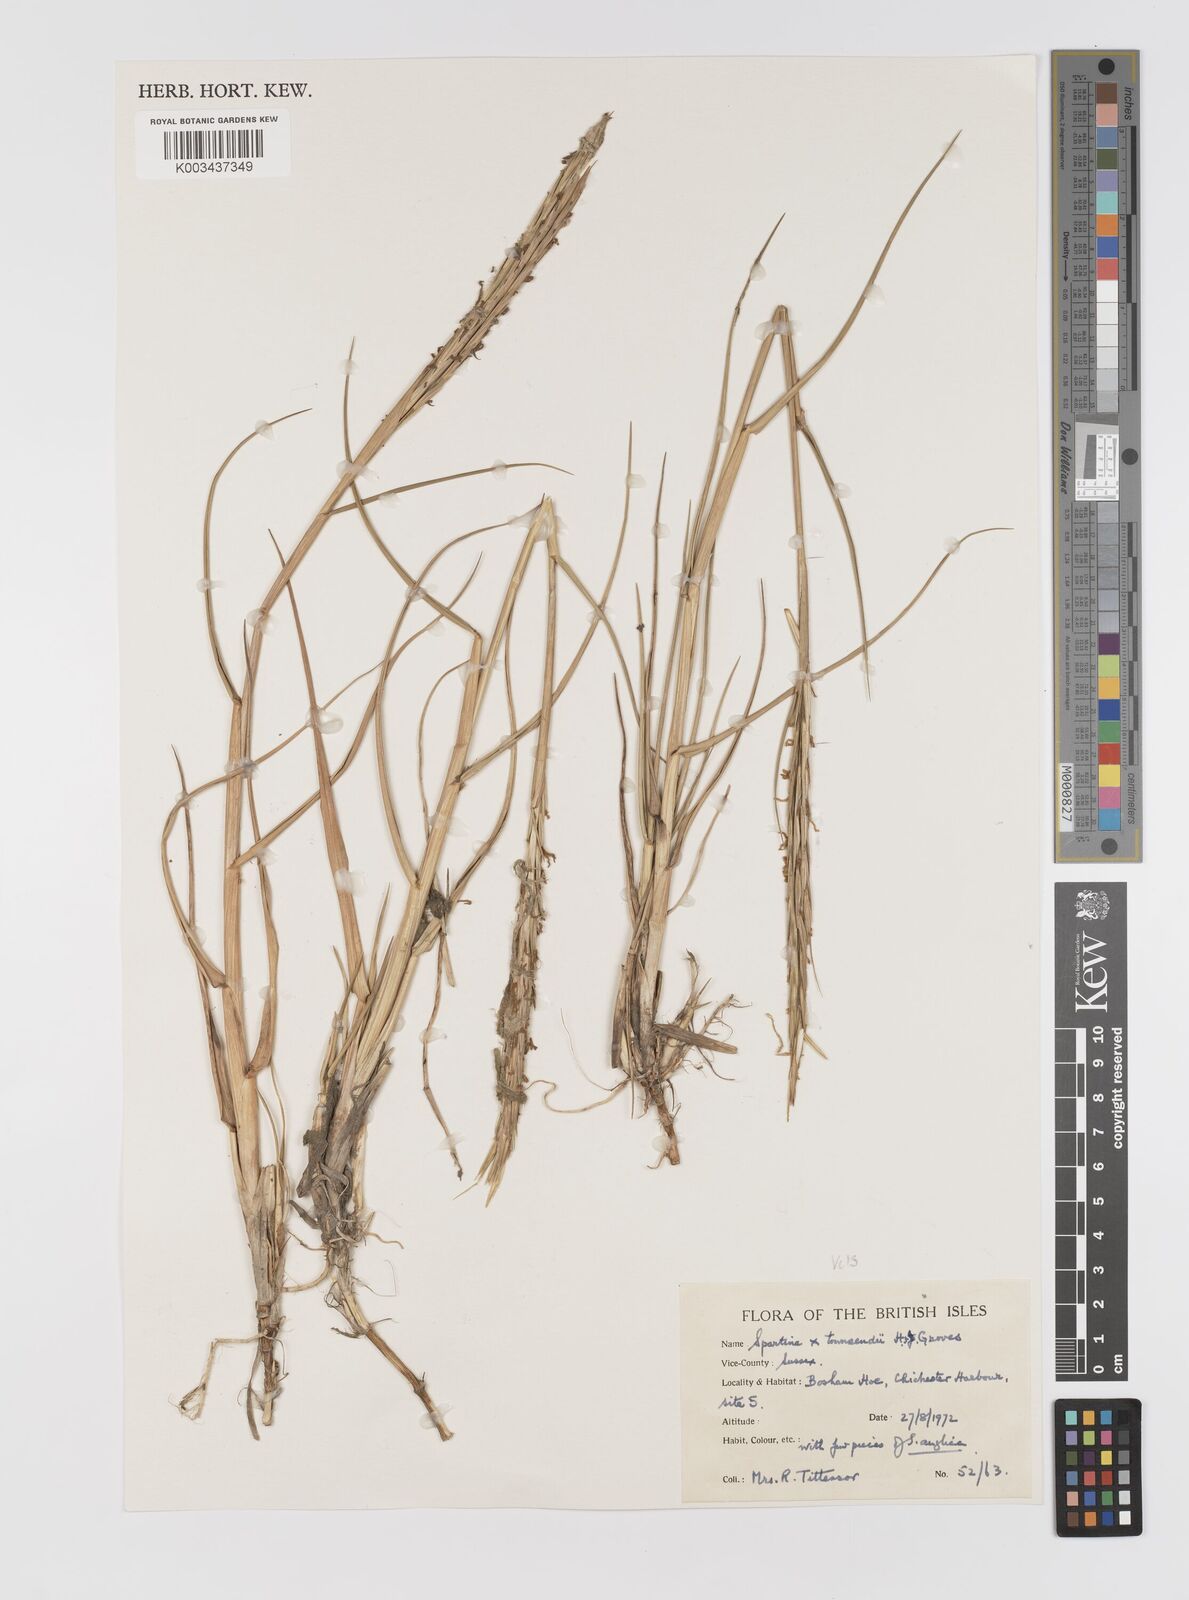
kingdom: Plantae
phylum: Tracheophyta
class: Liliopsida
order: Poales
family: Poaceae
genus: Sporobolus
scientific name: Sporobolus townsendii
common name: Townsend's cordgrass
